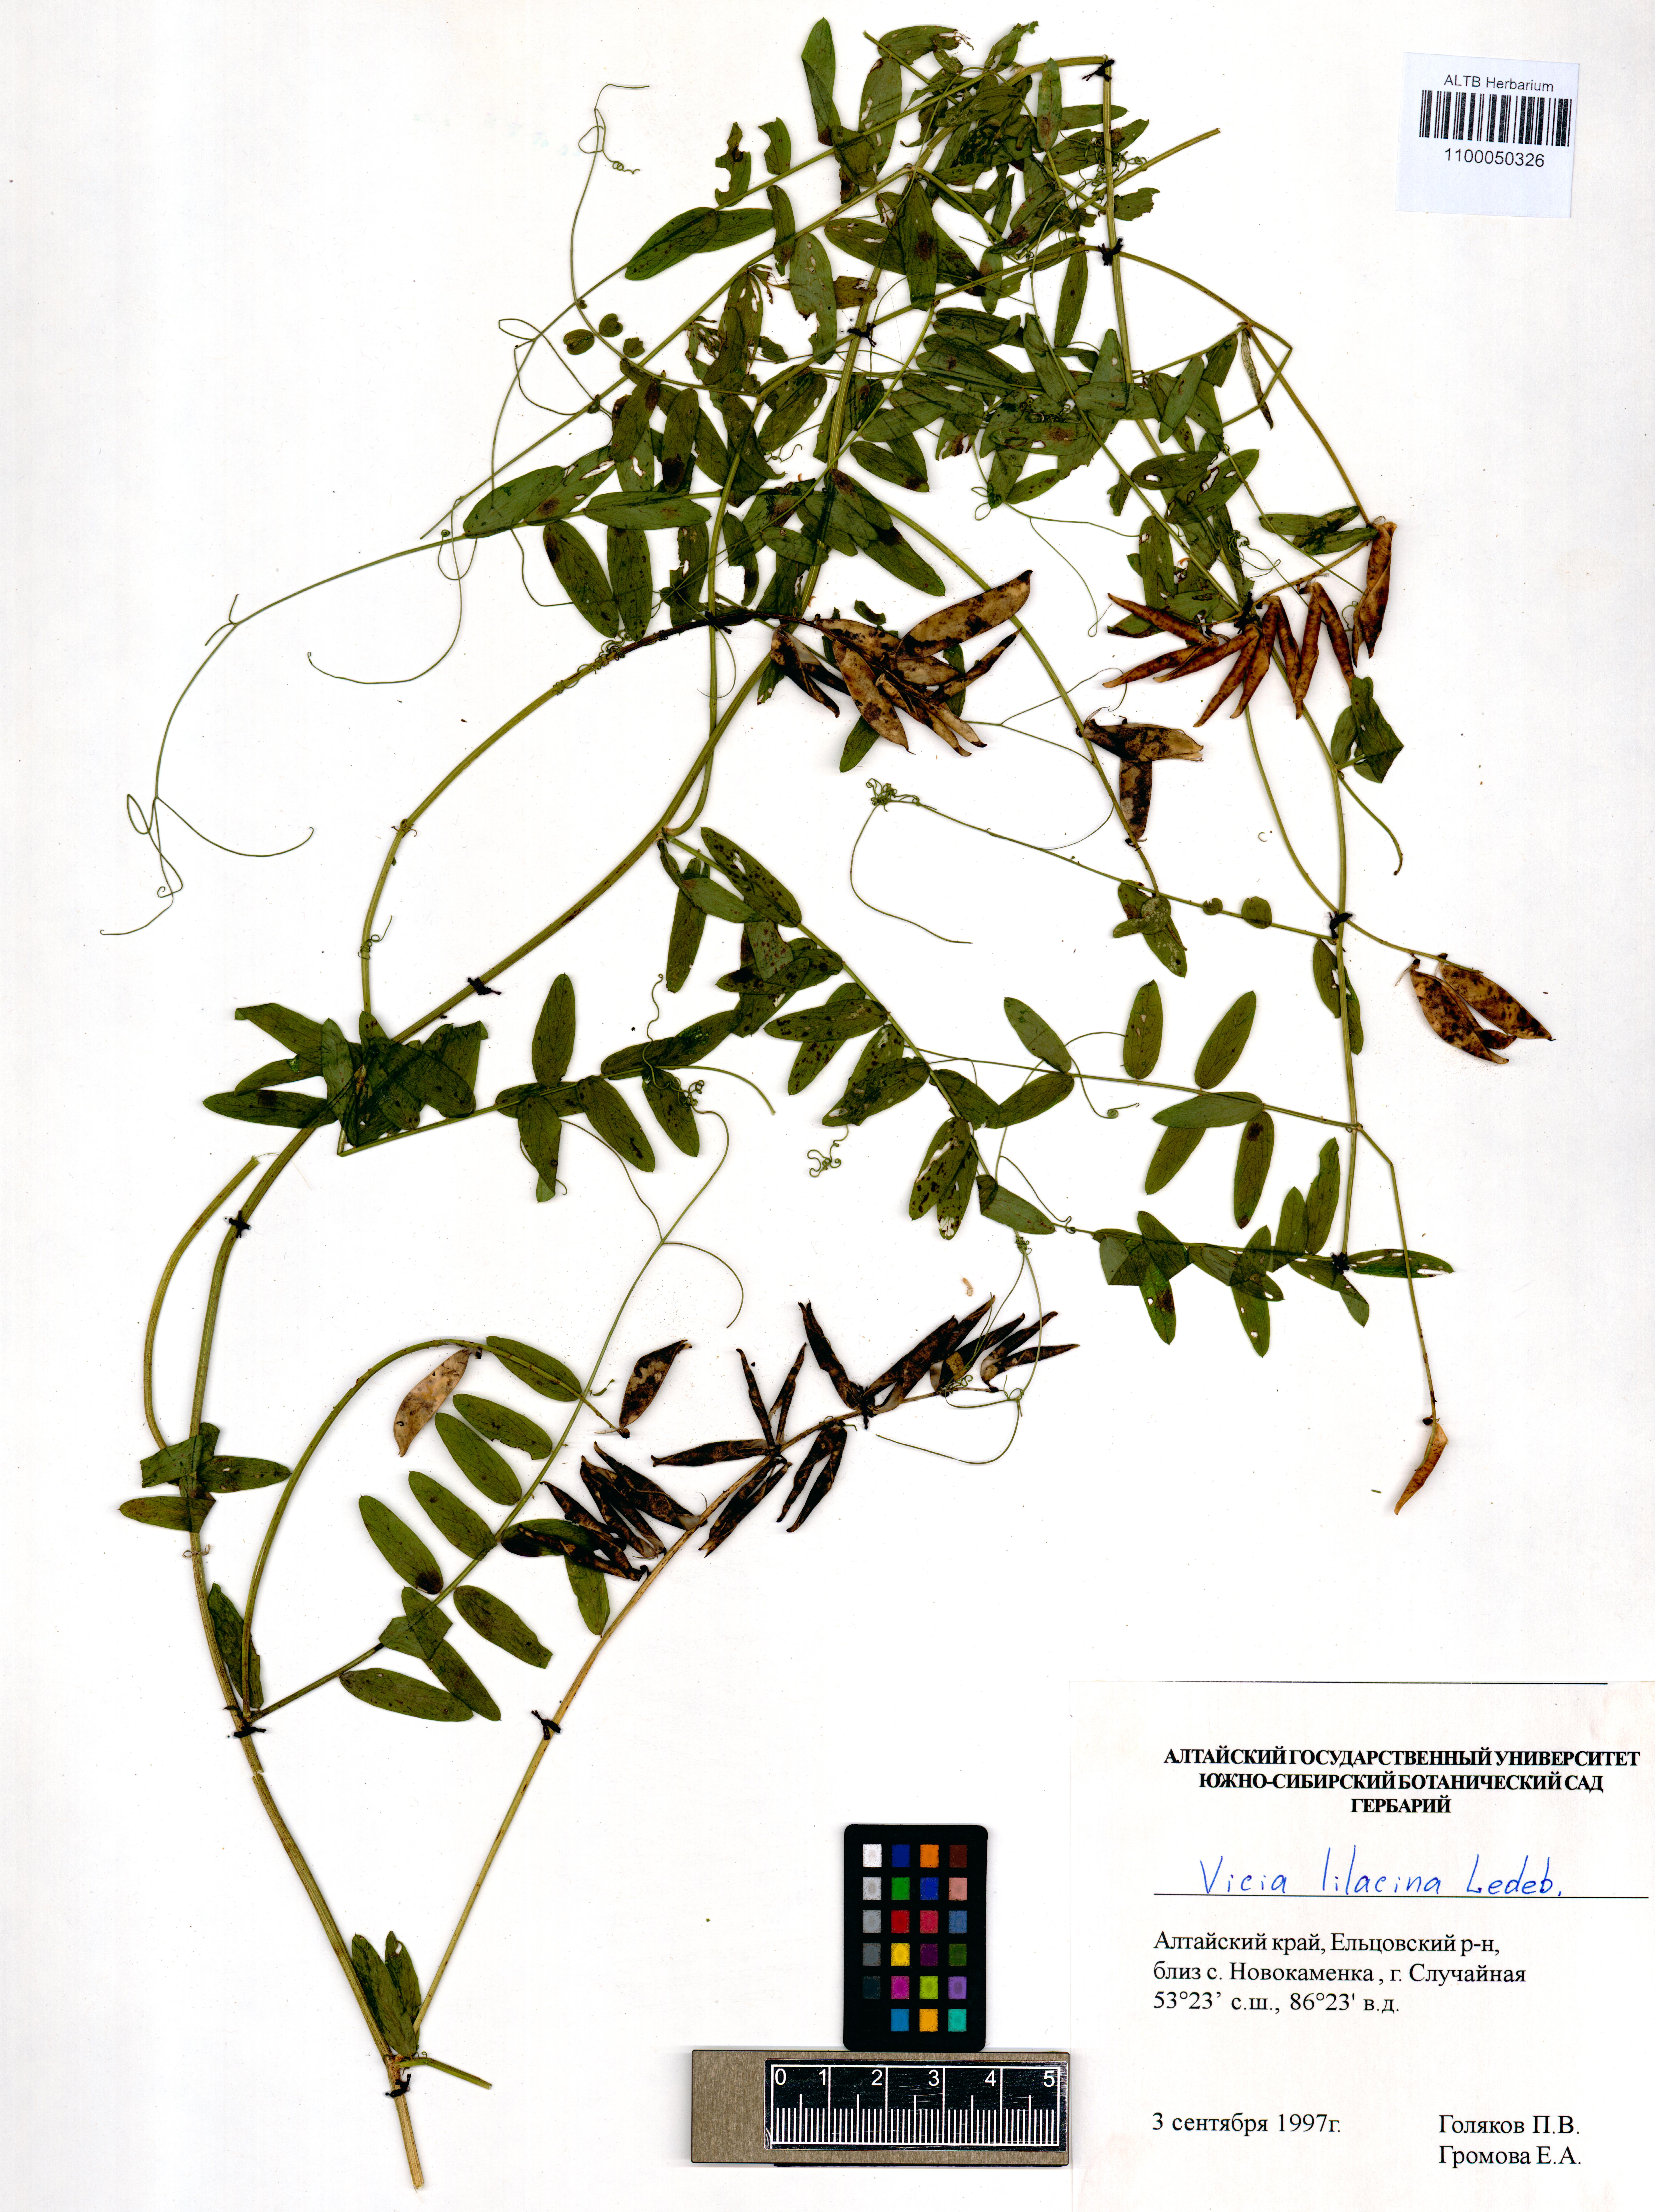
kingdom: Plantae
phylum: Tracheophyta
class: Magnoliopsida
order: Fabales
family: Fabaceae
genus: Vicia
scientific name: Vicia lilacina
